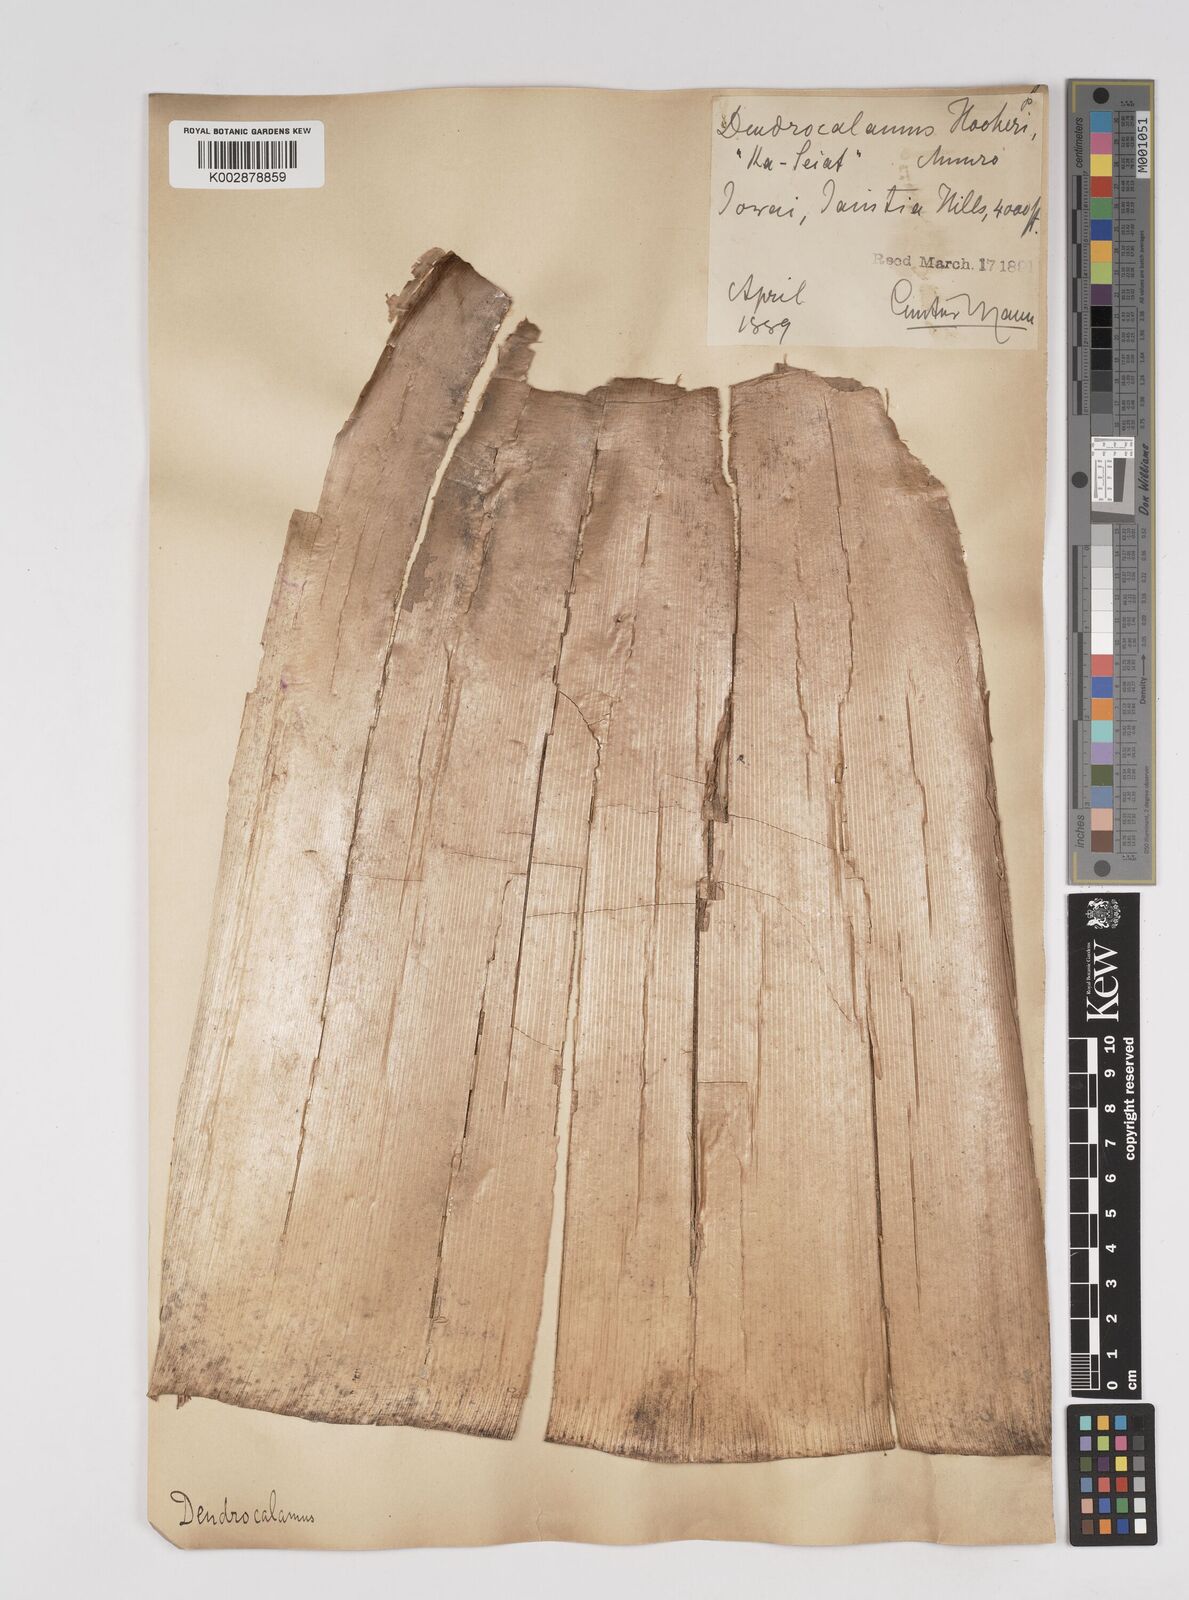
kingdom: Plantae
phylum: Tracheophyta
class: Liliopsida
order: Poales
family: Poaceae
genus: Dendrocalamus
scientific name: Dendrocalamus hookeri
